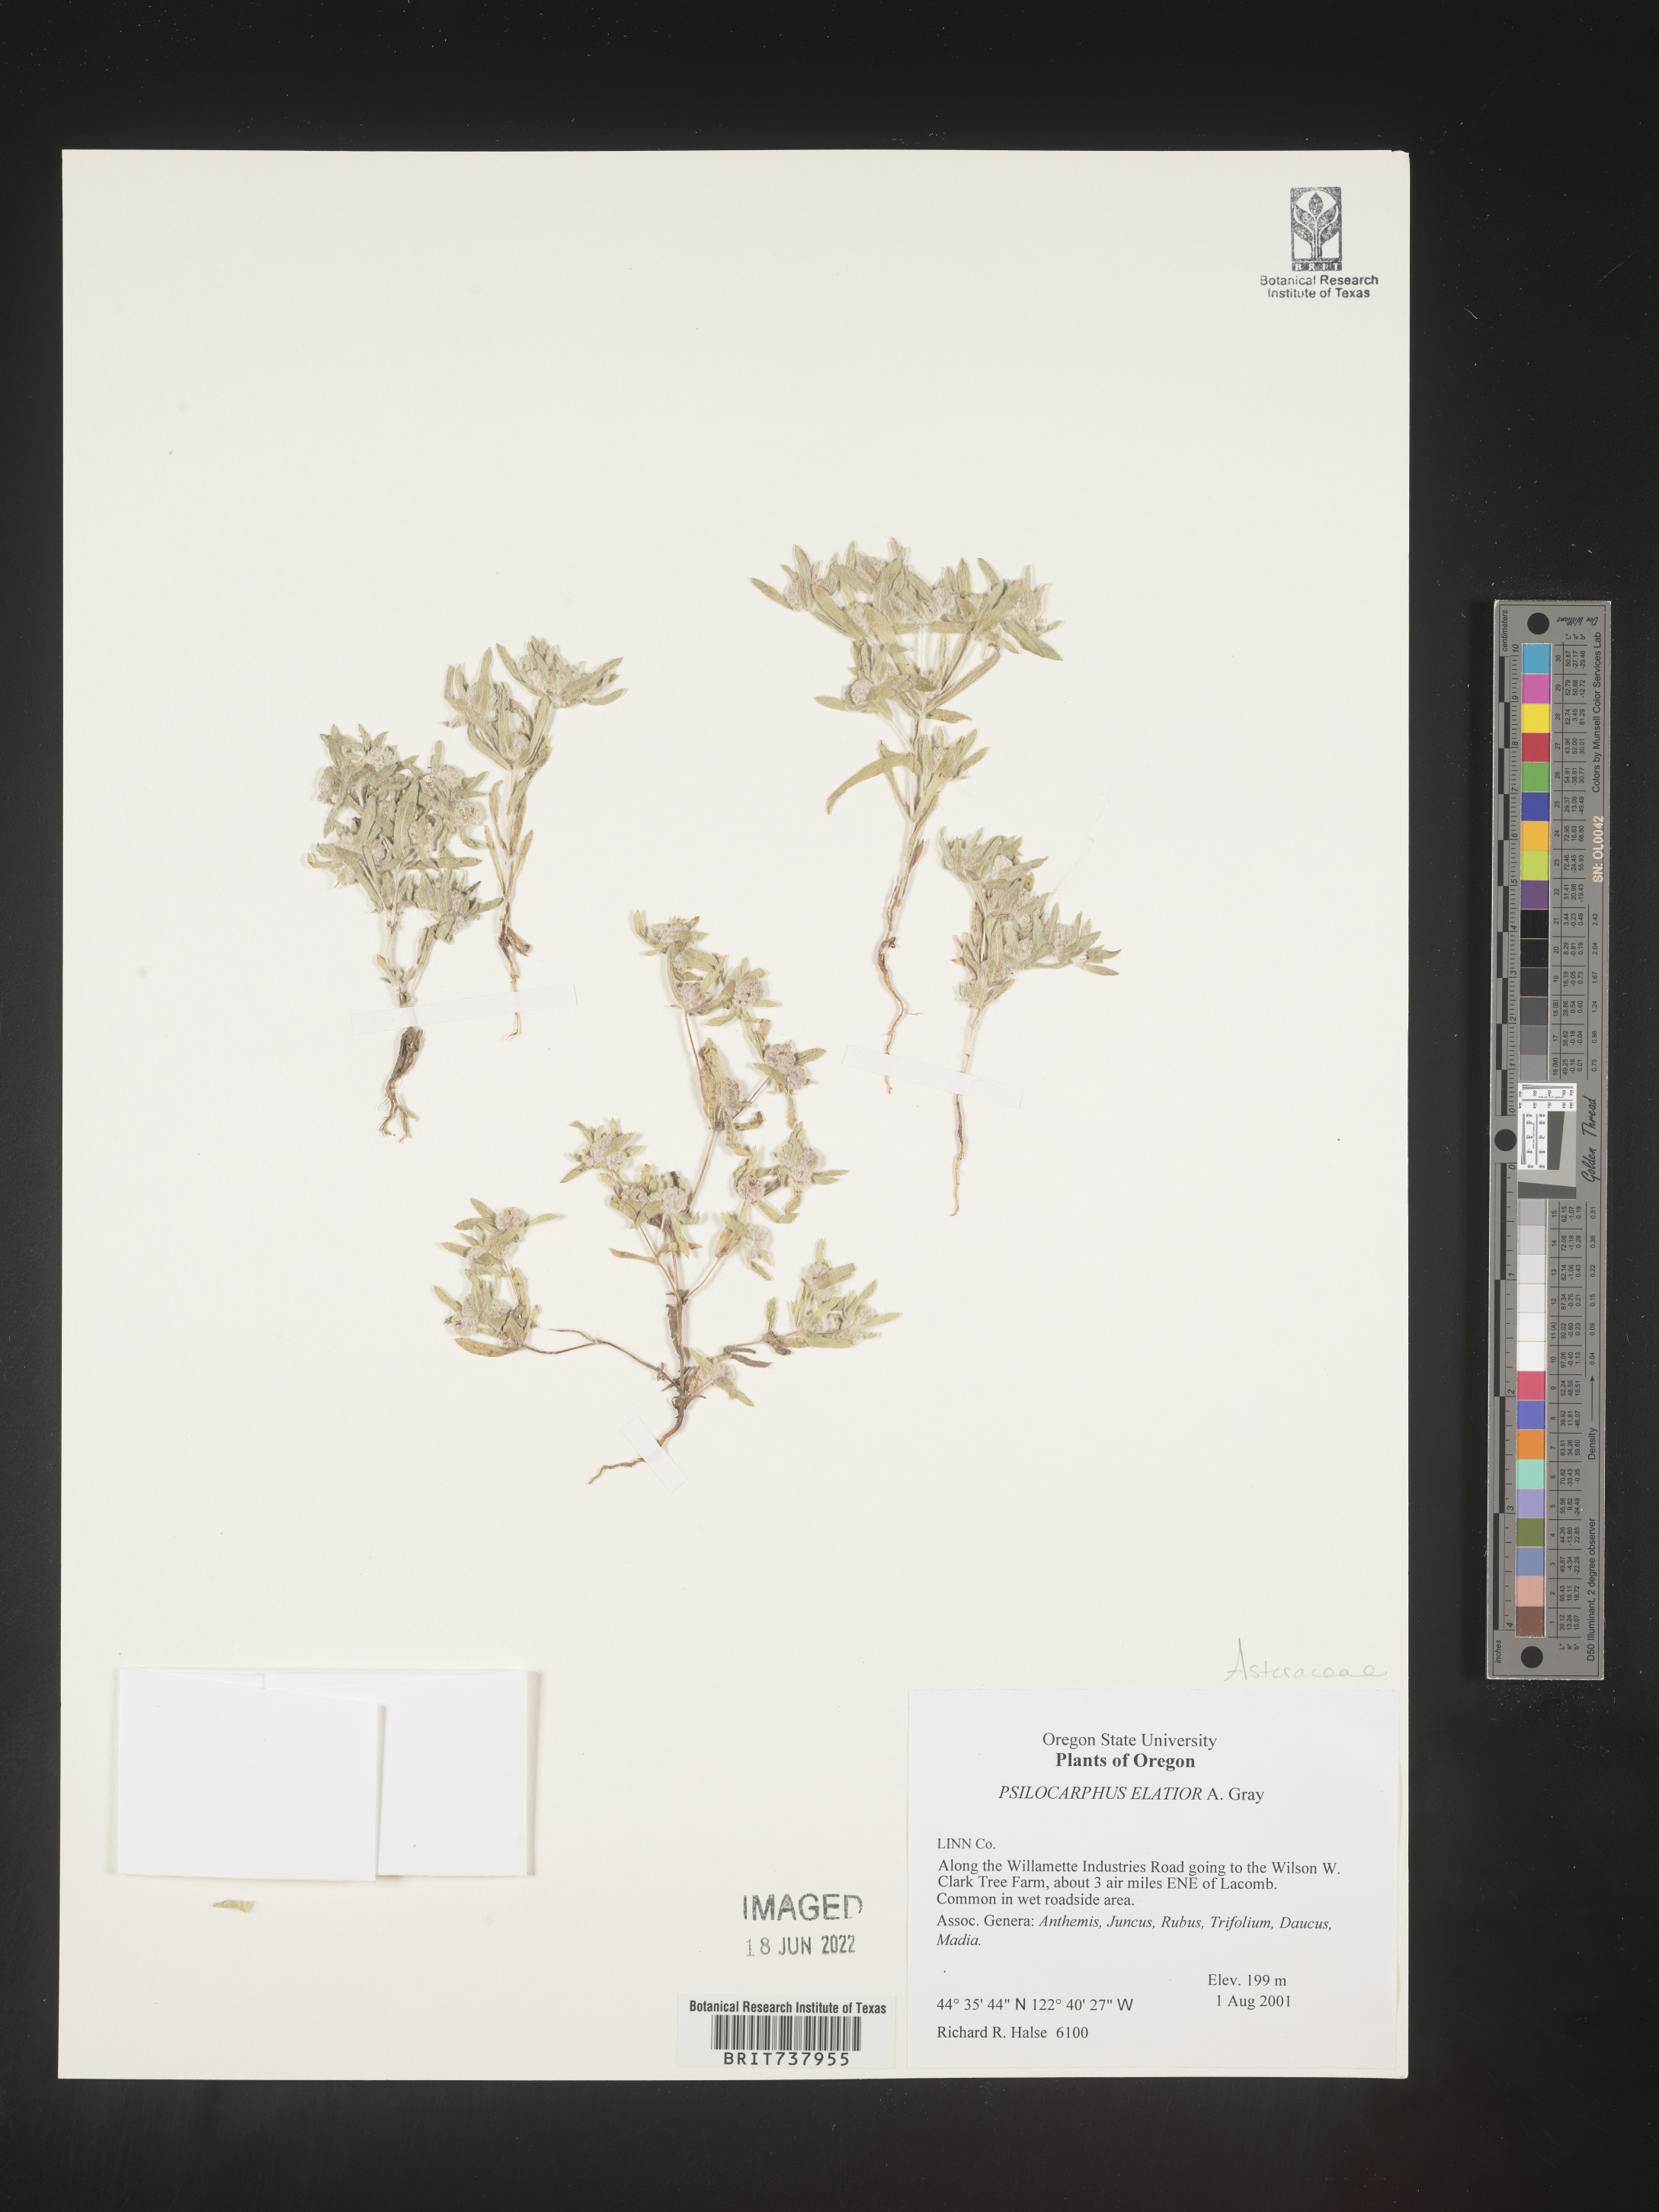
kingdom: Plantae
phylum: Tracheophyta
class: Magnoliopsida
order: Asterales
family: Asteraceae
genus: Psilocarphus
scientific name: Psilocarphus
